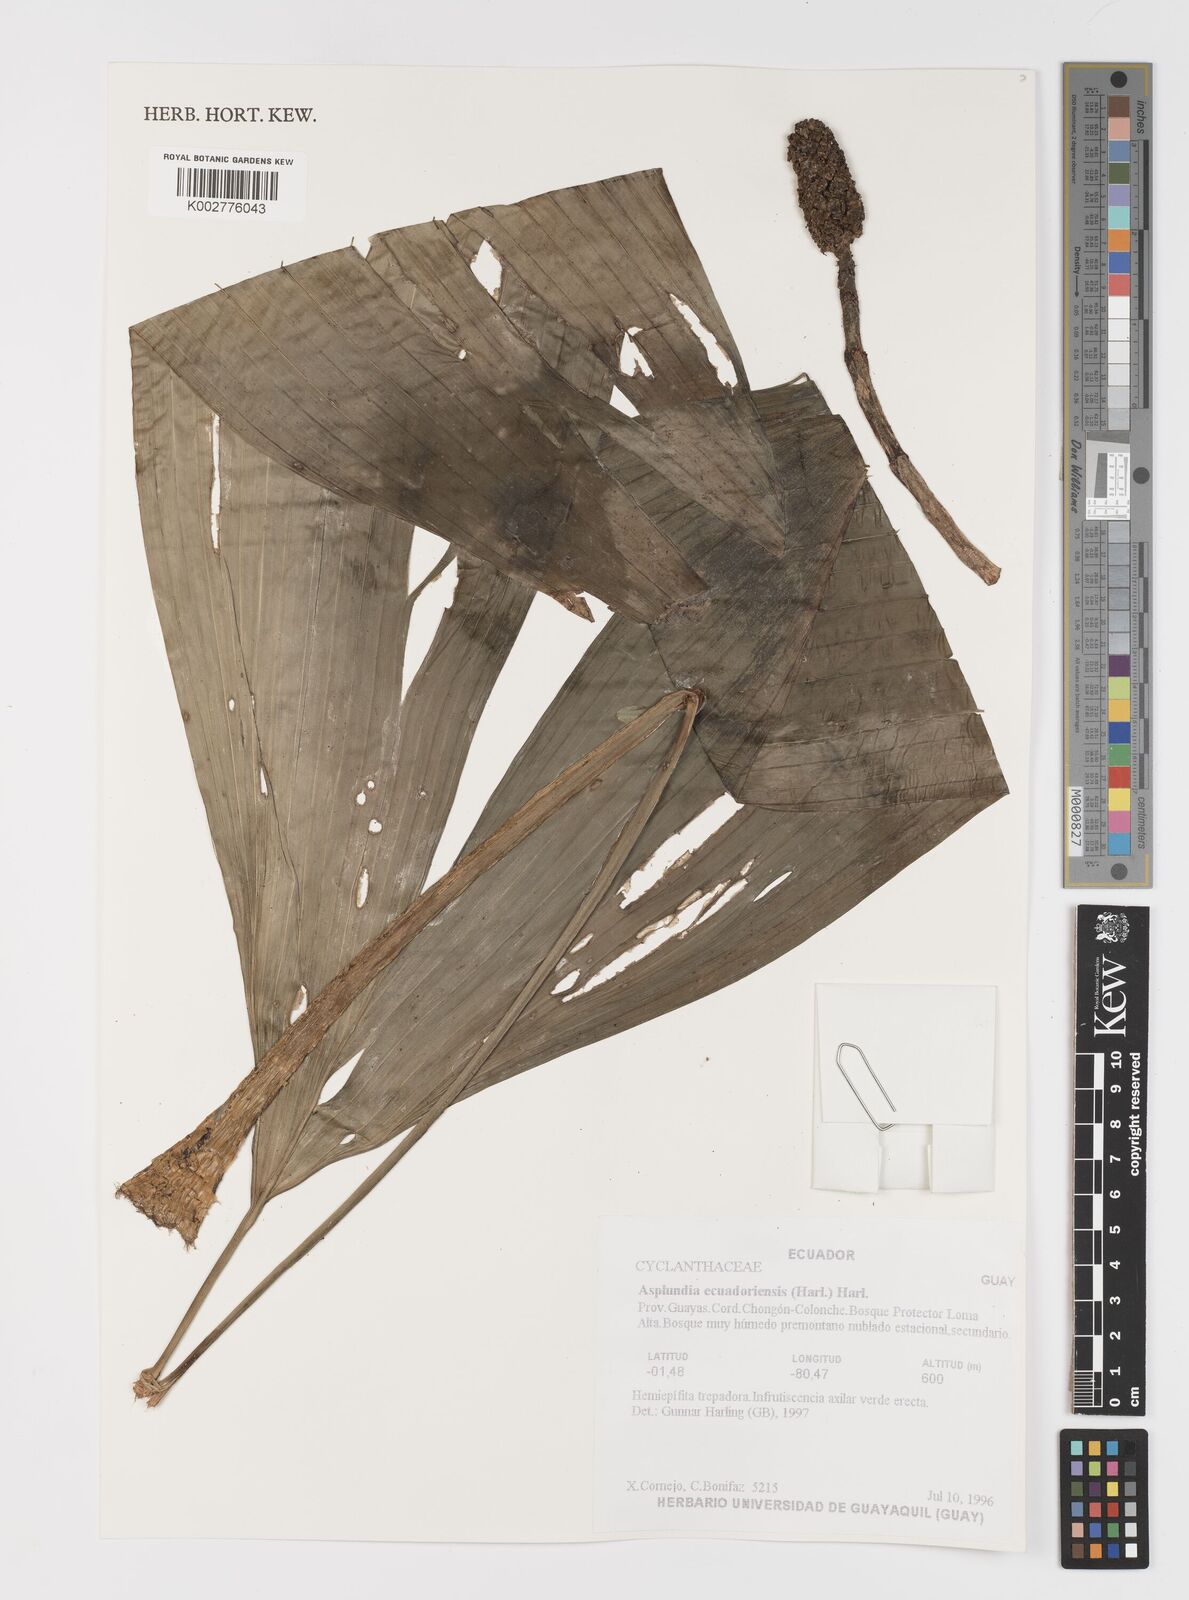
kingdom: Plantae
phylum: Tracheophyta
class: Liliopsida
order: Pandanales
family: Cyclanthaceae
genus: Asplundia
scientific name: Asplundia ecuadoriensis
